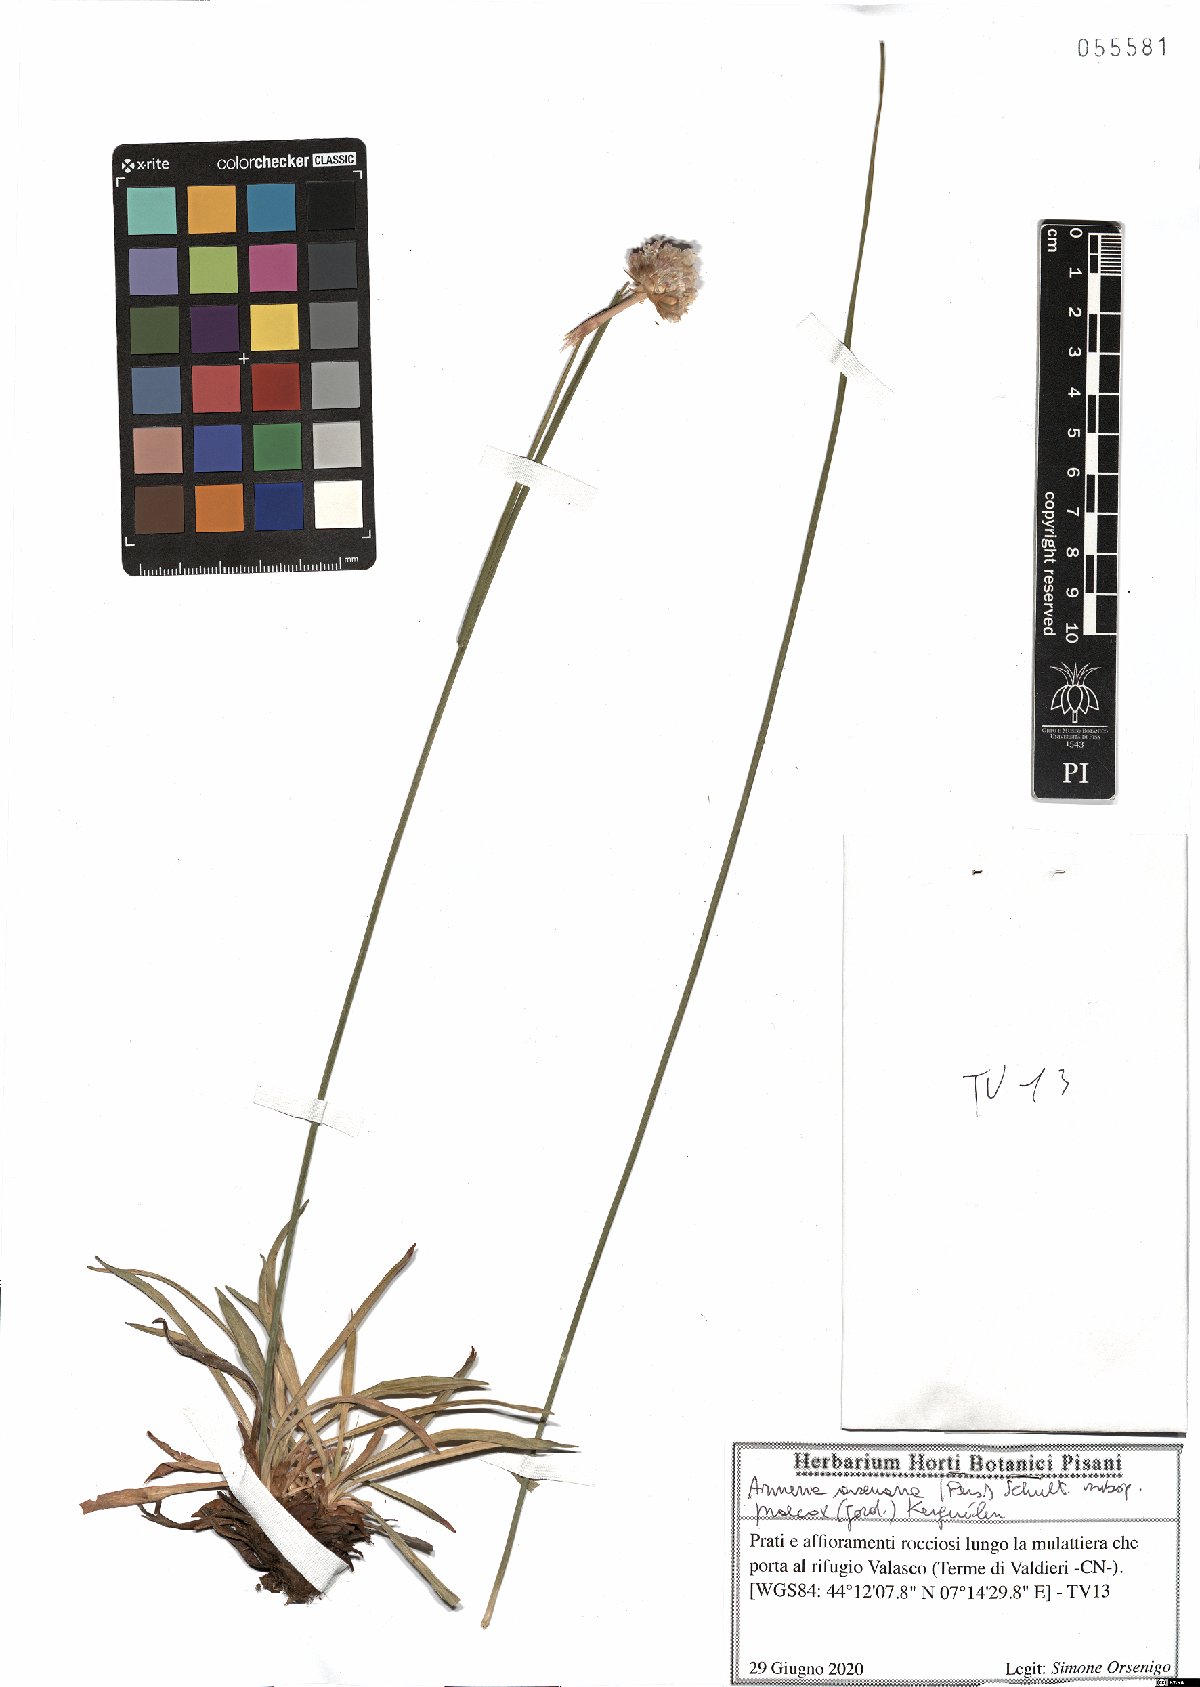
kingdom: Plantae
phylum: Tracheophyta
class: Magnoliopsida
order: Caryophyllales
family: Plumbaginaceae
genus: Armeria
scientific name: Armeria arenaria
